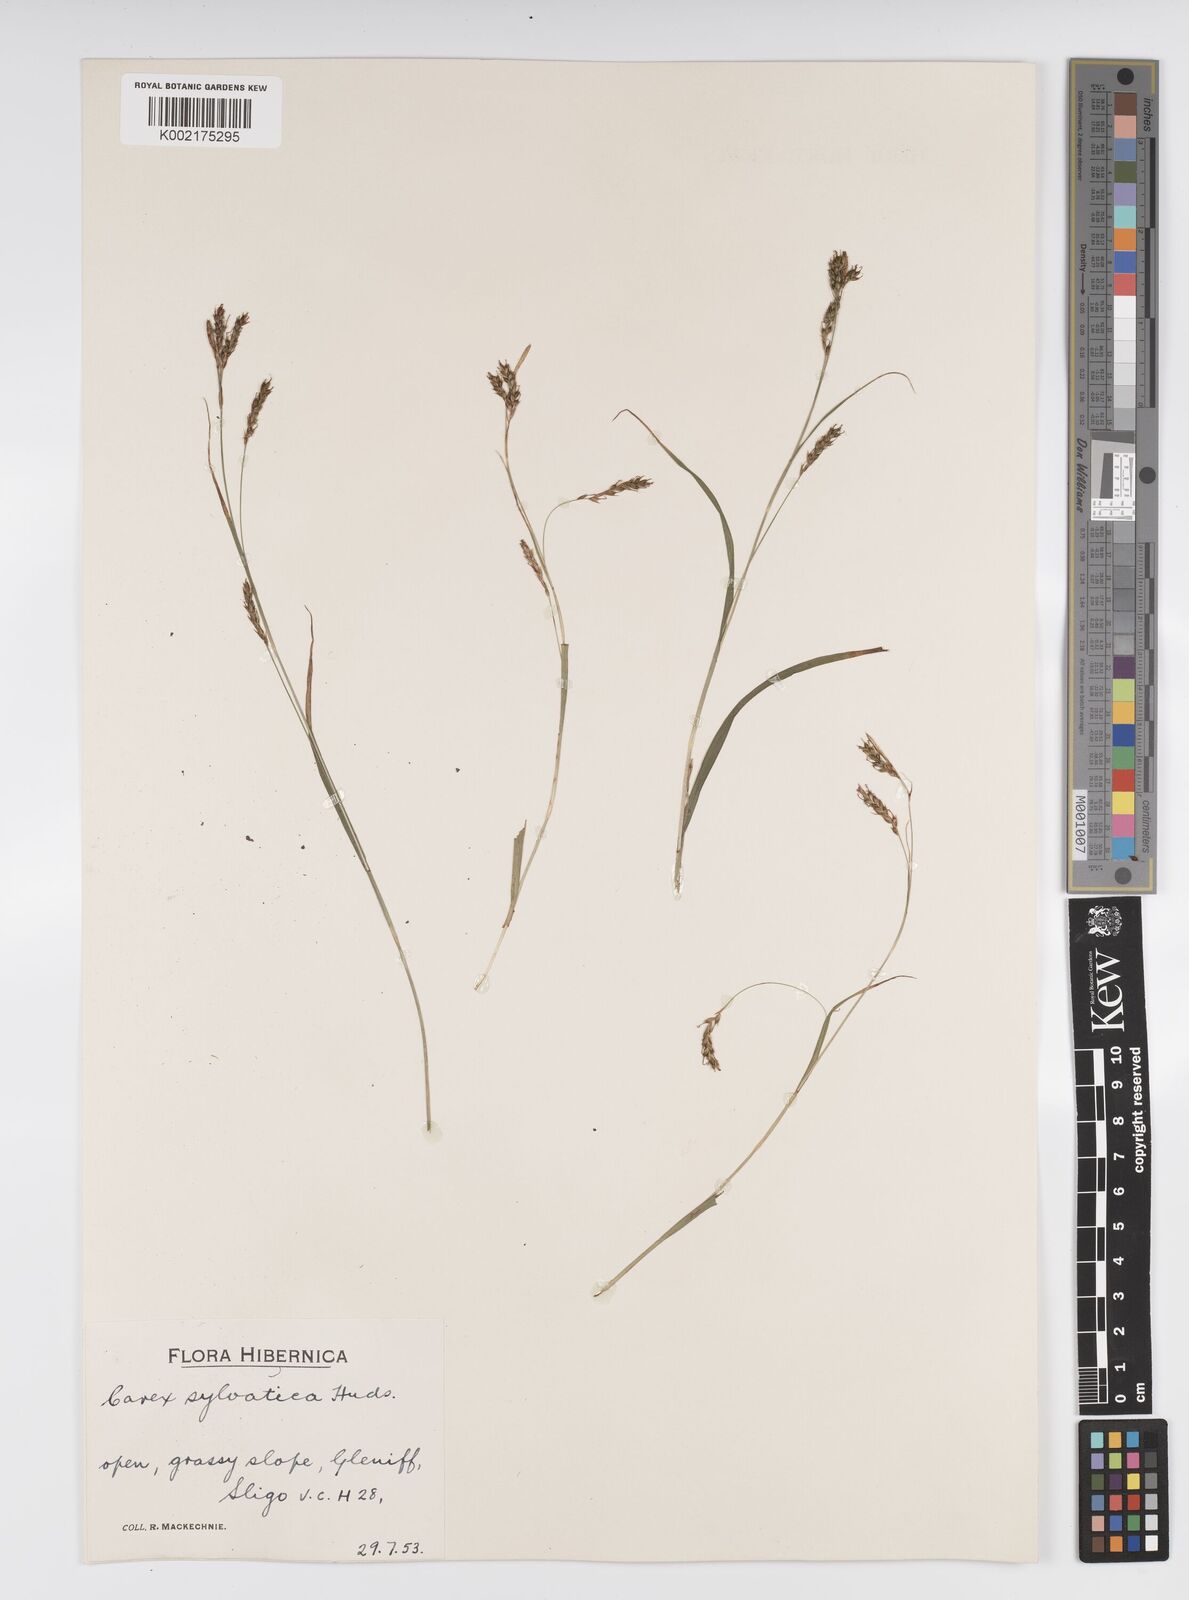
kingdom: Plantae
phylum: Tracheophyta
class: Liliopsida
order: Poales
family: Cyperaceae
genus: Carex
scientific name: Carex sylvatica
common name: Wood-sedge
